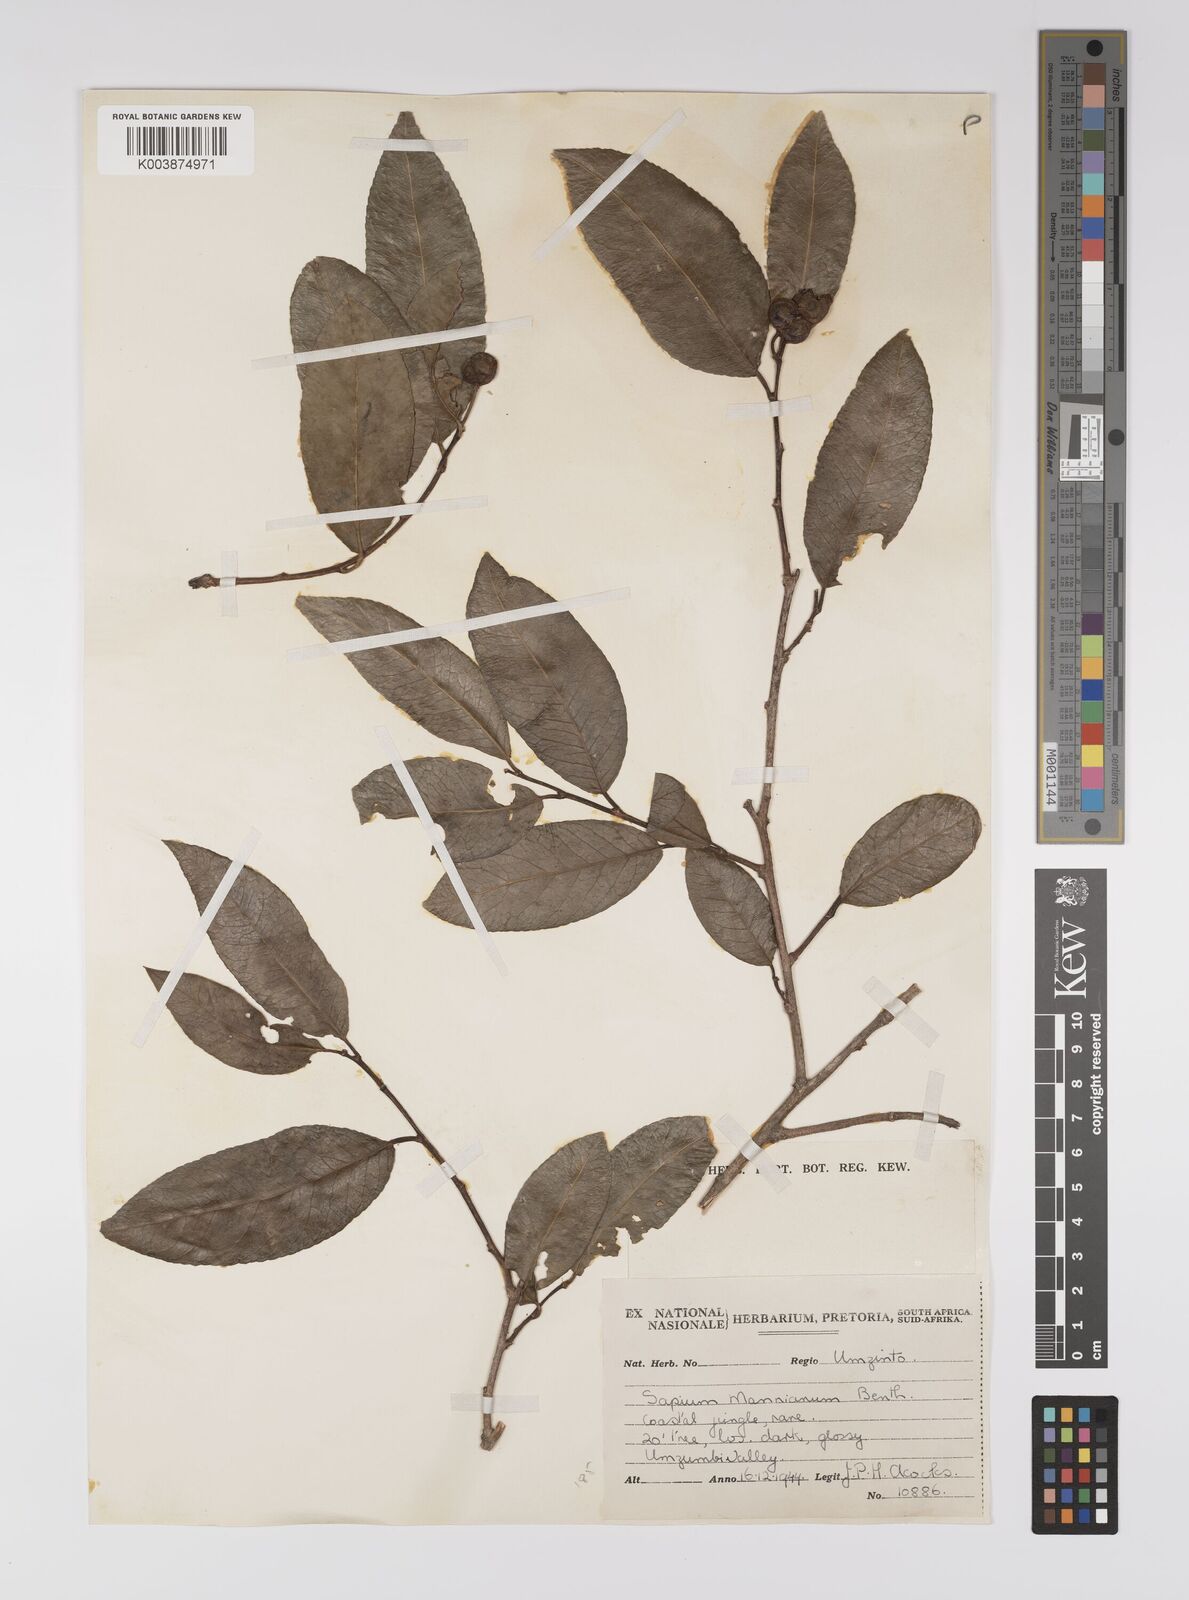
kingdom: Plantae
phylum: Tracheophyta
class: Magnoliopsida
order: Malpighiales
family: Euphorbiaceae
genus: Shirakiopsis
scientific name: Shirakiopsis elliptica
